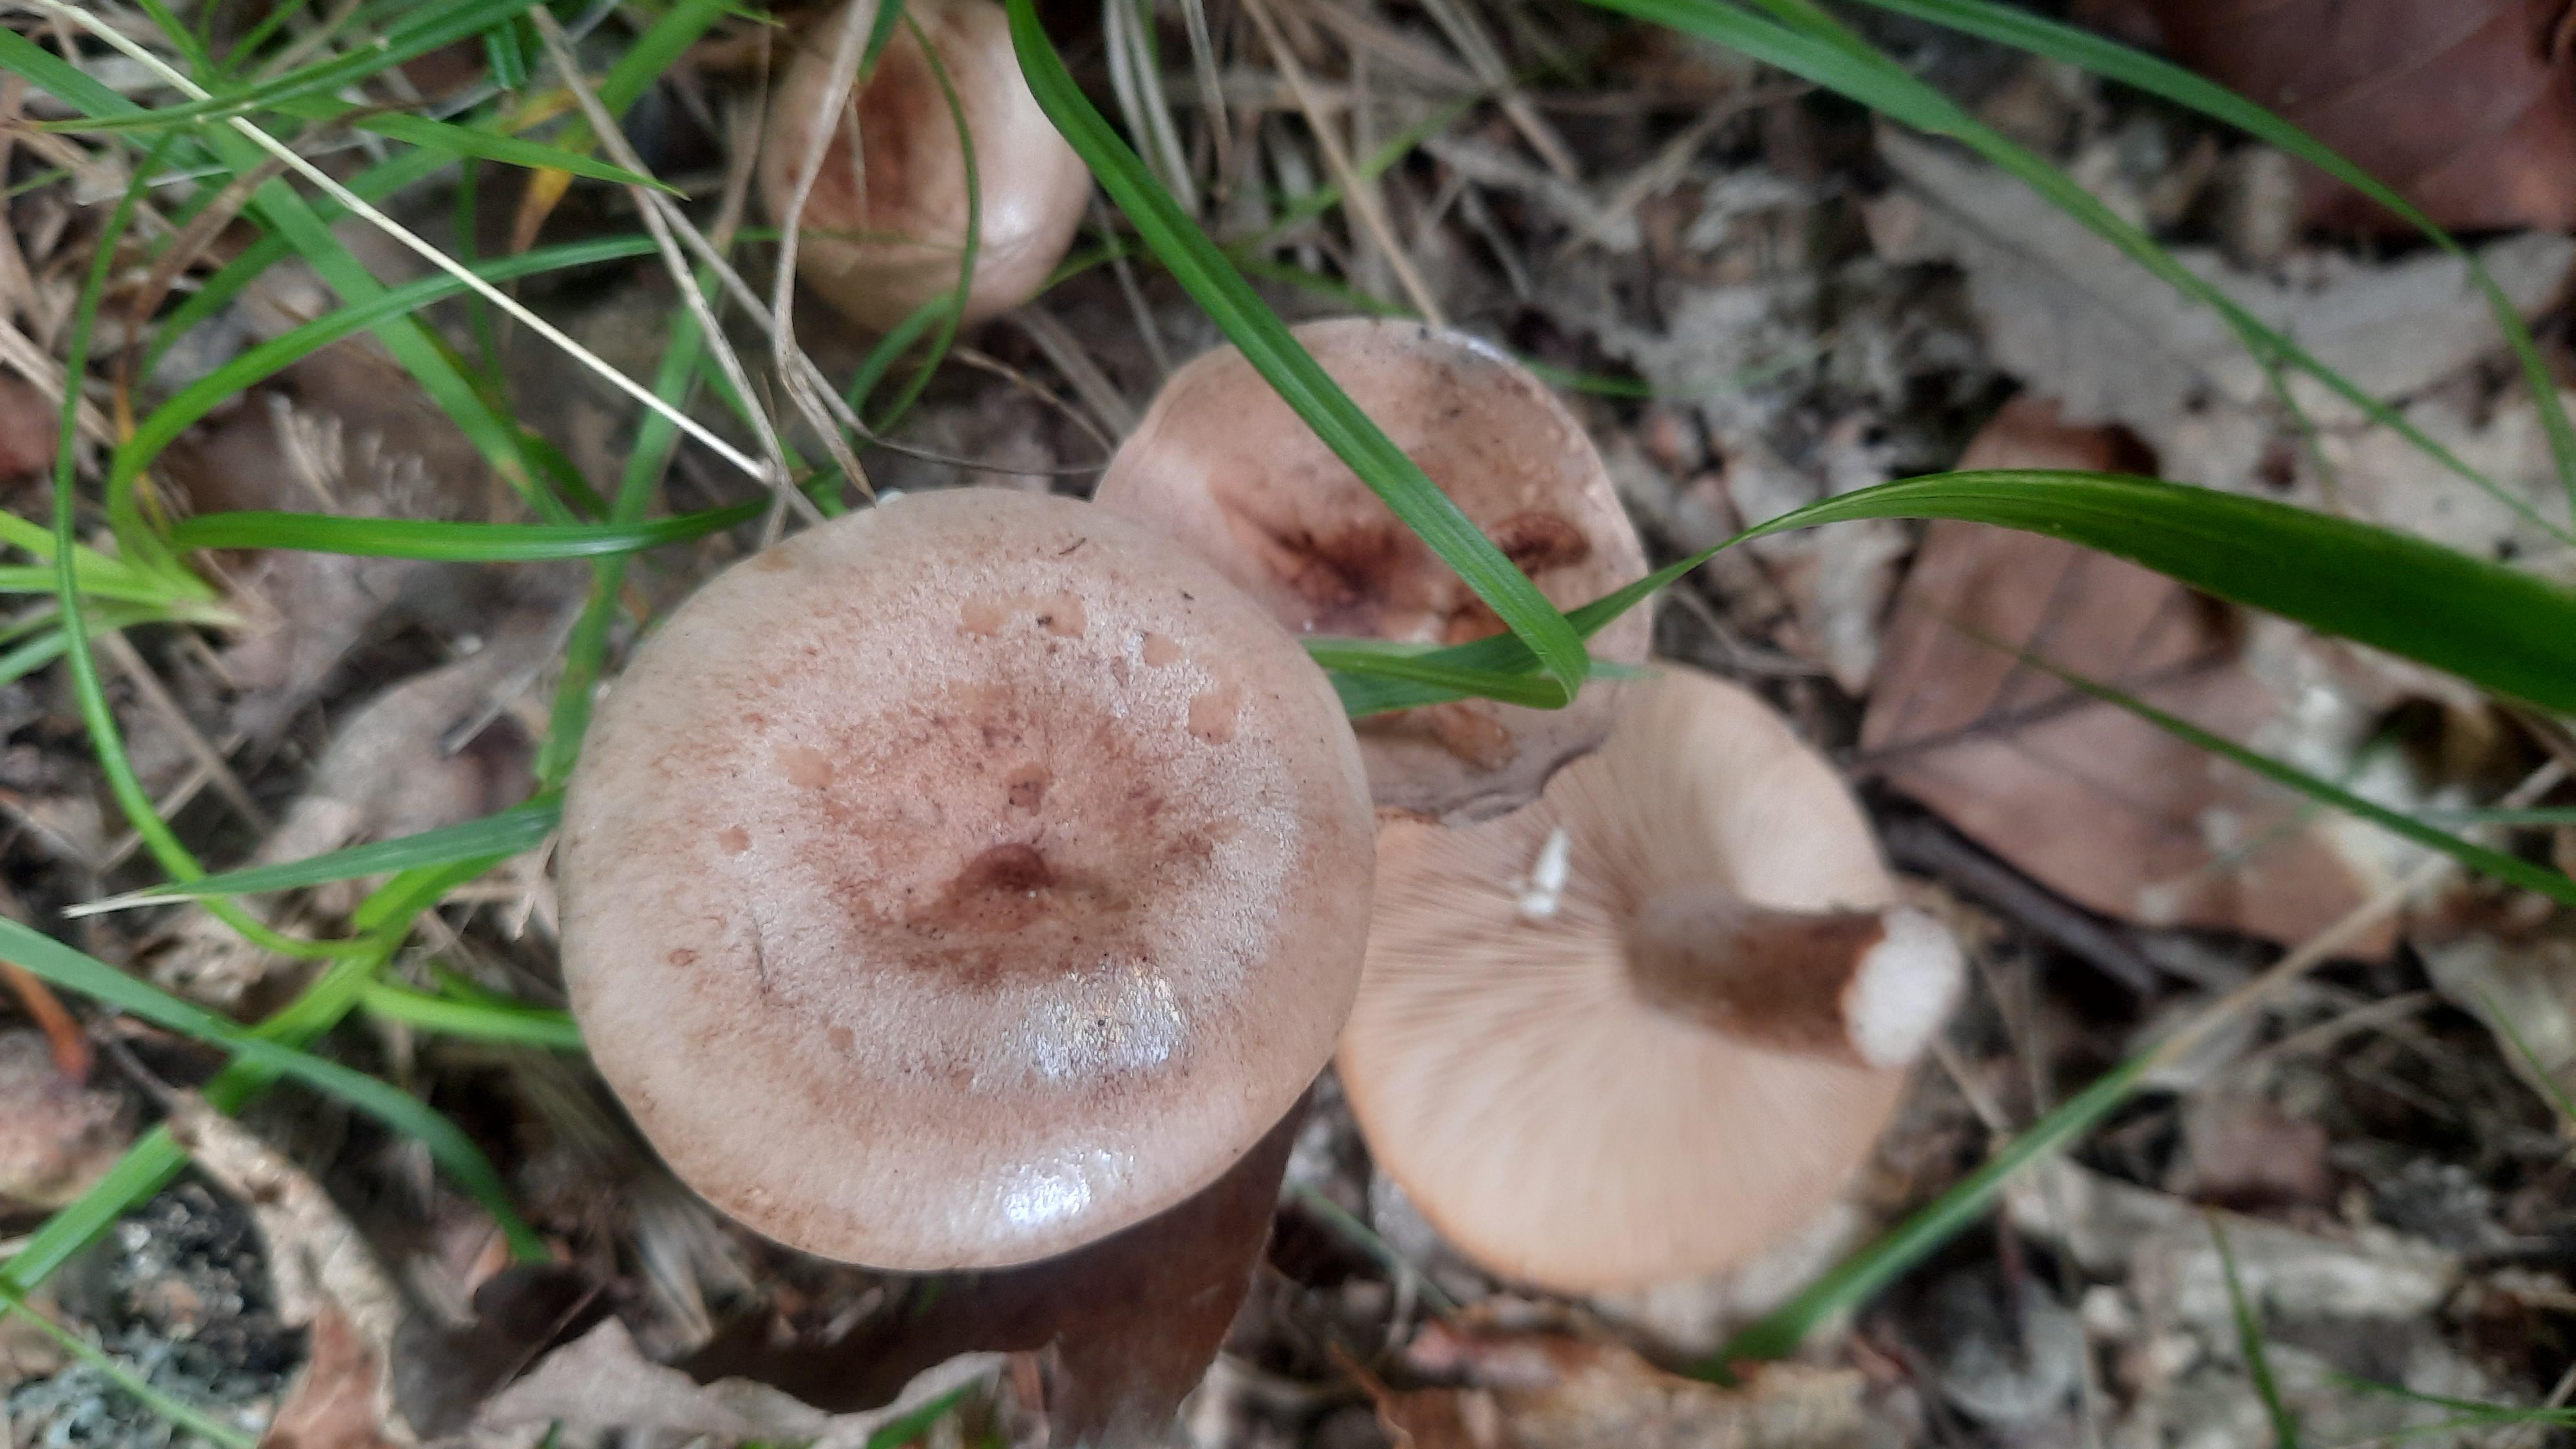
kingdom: Fungi
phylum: Basidiomycota
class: Agaricomycetes
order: Russulales
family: Russulaceae
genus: Lactarius
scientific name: Lactarius quietus
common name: ege-mælkehat
